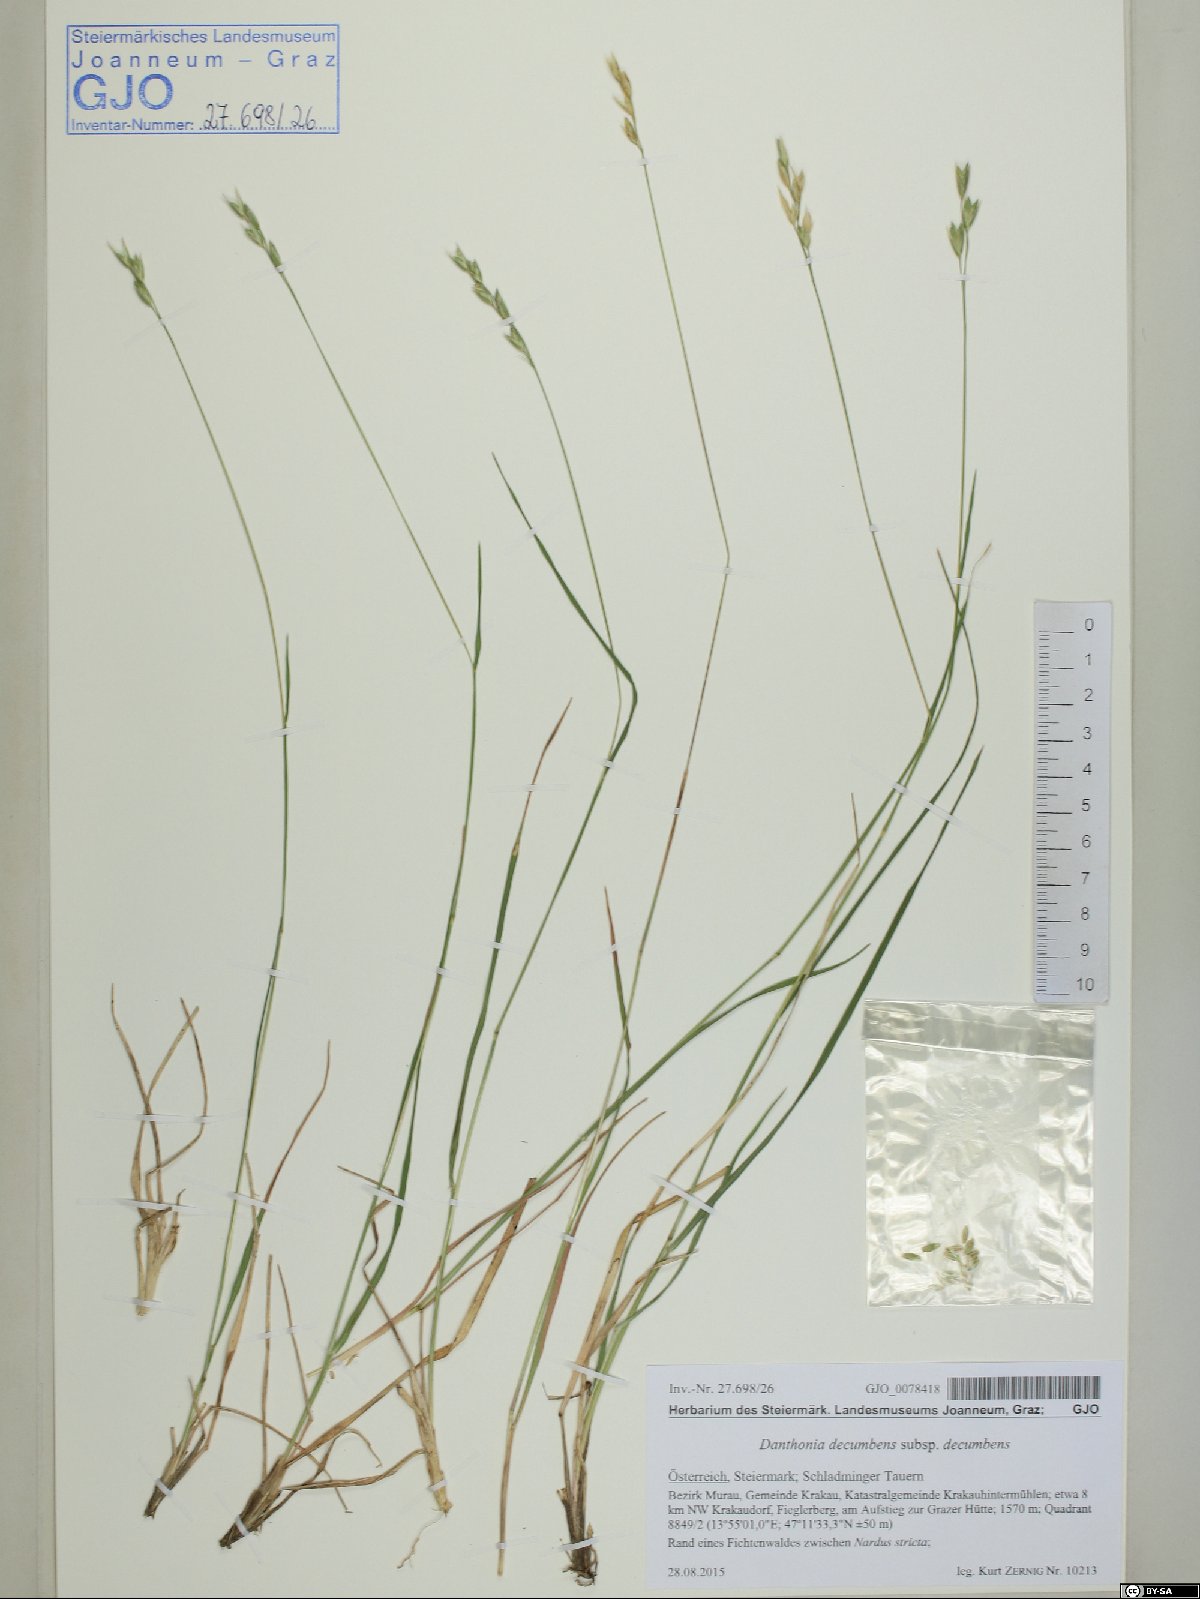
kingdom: Plantae
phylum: Tracheophyta
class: Liliopsida
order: Poales
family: Poaceae
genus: Danthonia
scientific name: Danthonia decumbens
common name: Common heathgrass
